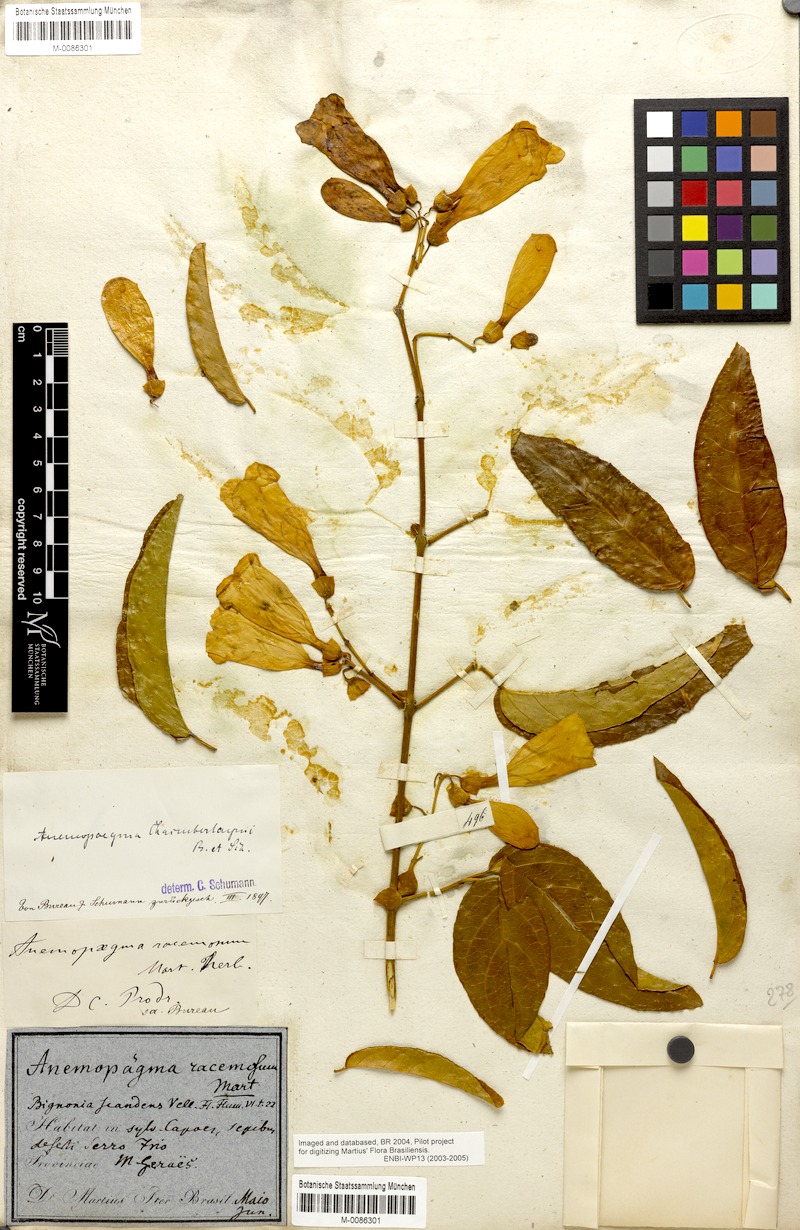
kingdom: Plantae
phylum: Tracheophyta
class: Magnoliopsida
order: Lamiales
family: Bignoniaceae
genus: Anemopaegma
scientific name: Anemopaegma chamberlaynii
